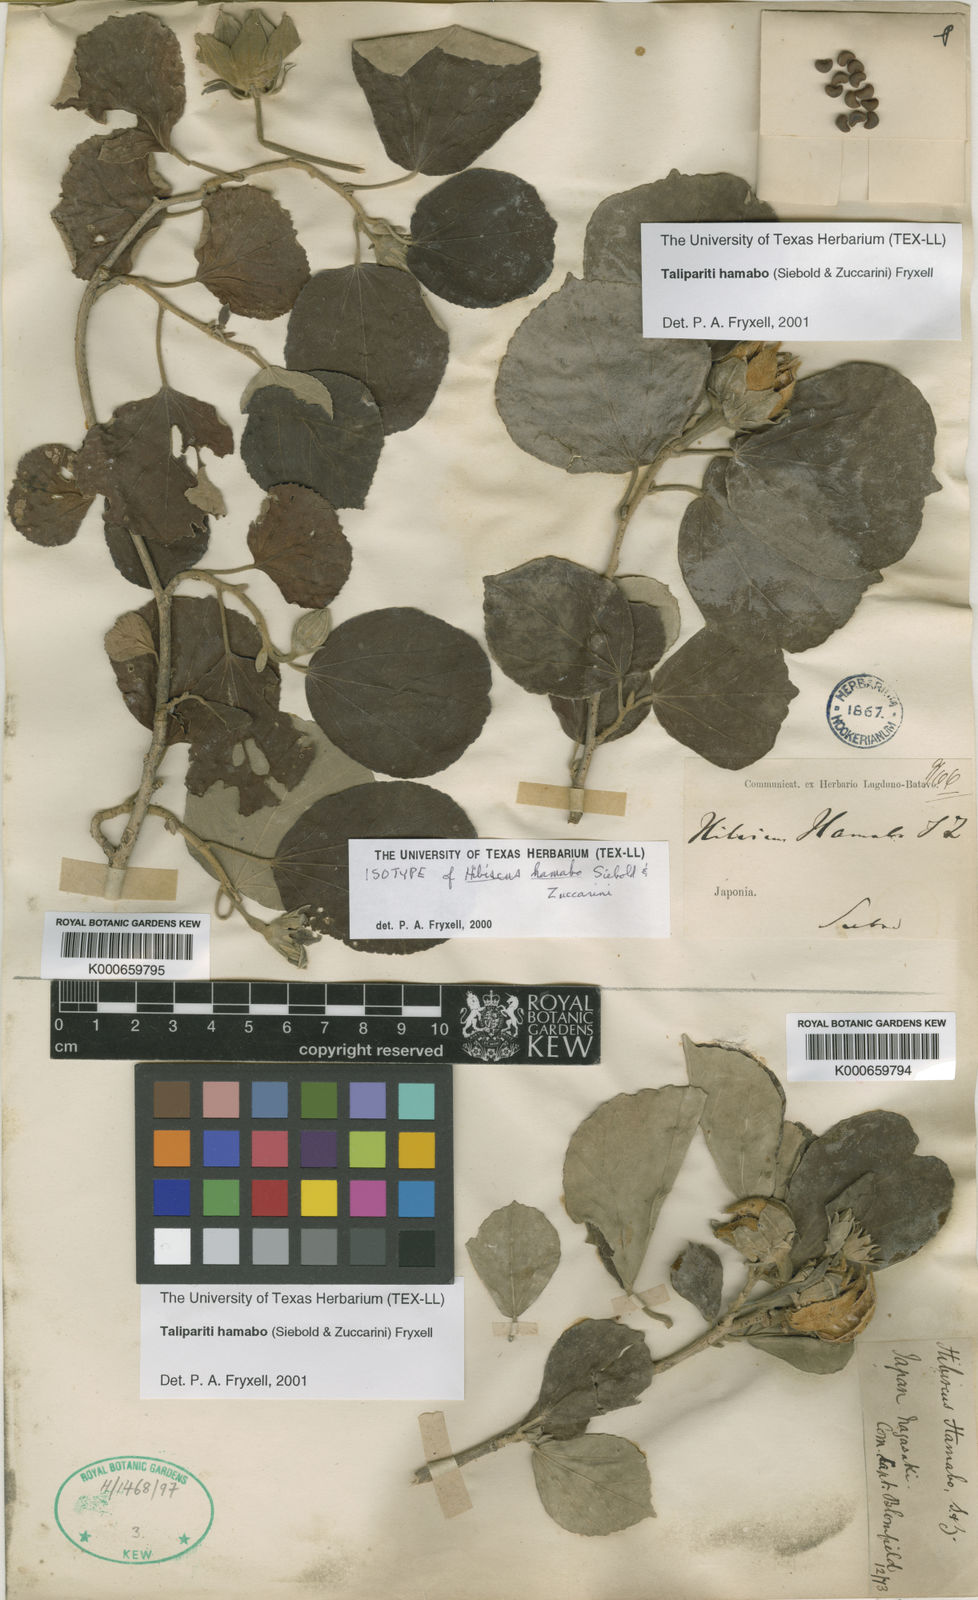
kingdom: Plantae
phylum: Tracheophyta
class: Magnoliopsida
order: Malvales
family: Malvaceae
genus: Talipariti
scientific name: Talipariti hamabo
